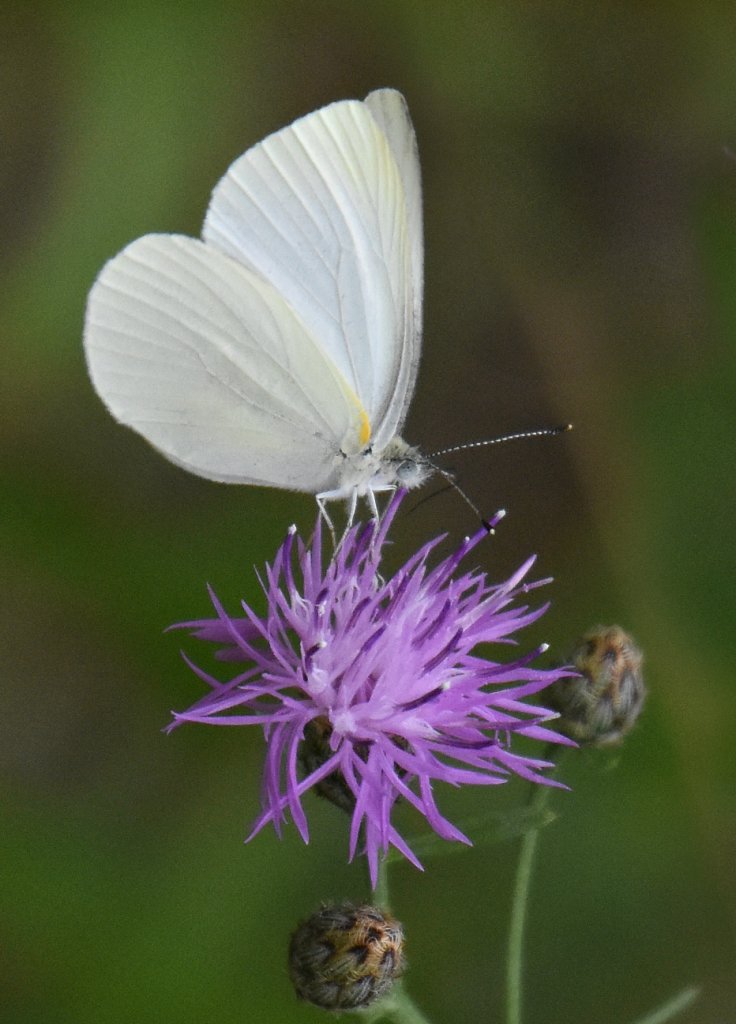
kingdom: Animalia
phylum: Arthropoda
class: Insecta
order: Lepidoptera
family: Pieridae
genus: Pieris
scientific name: Pieris oleracea
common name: Mustard White
